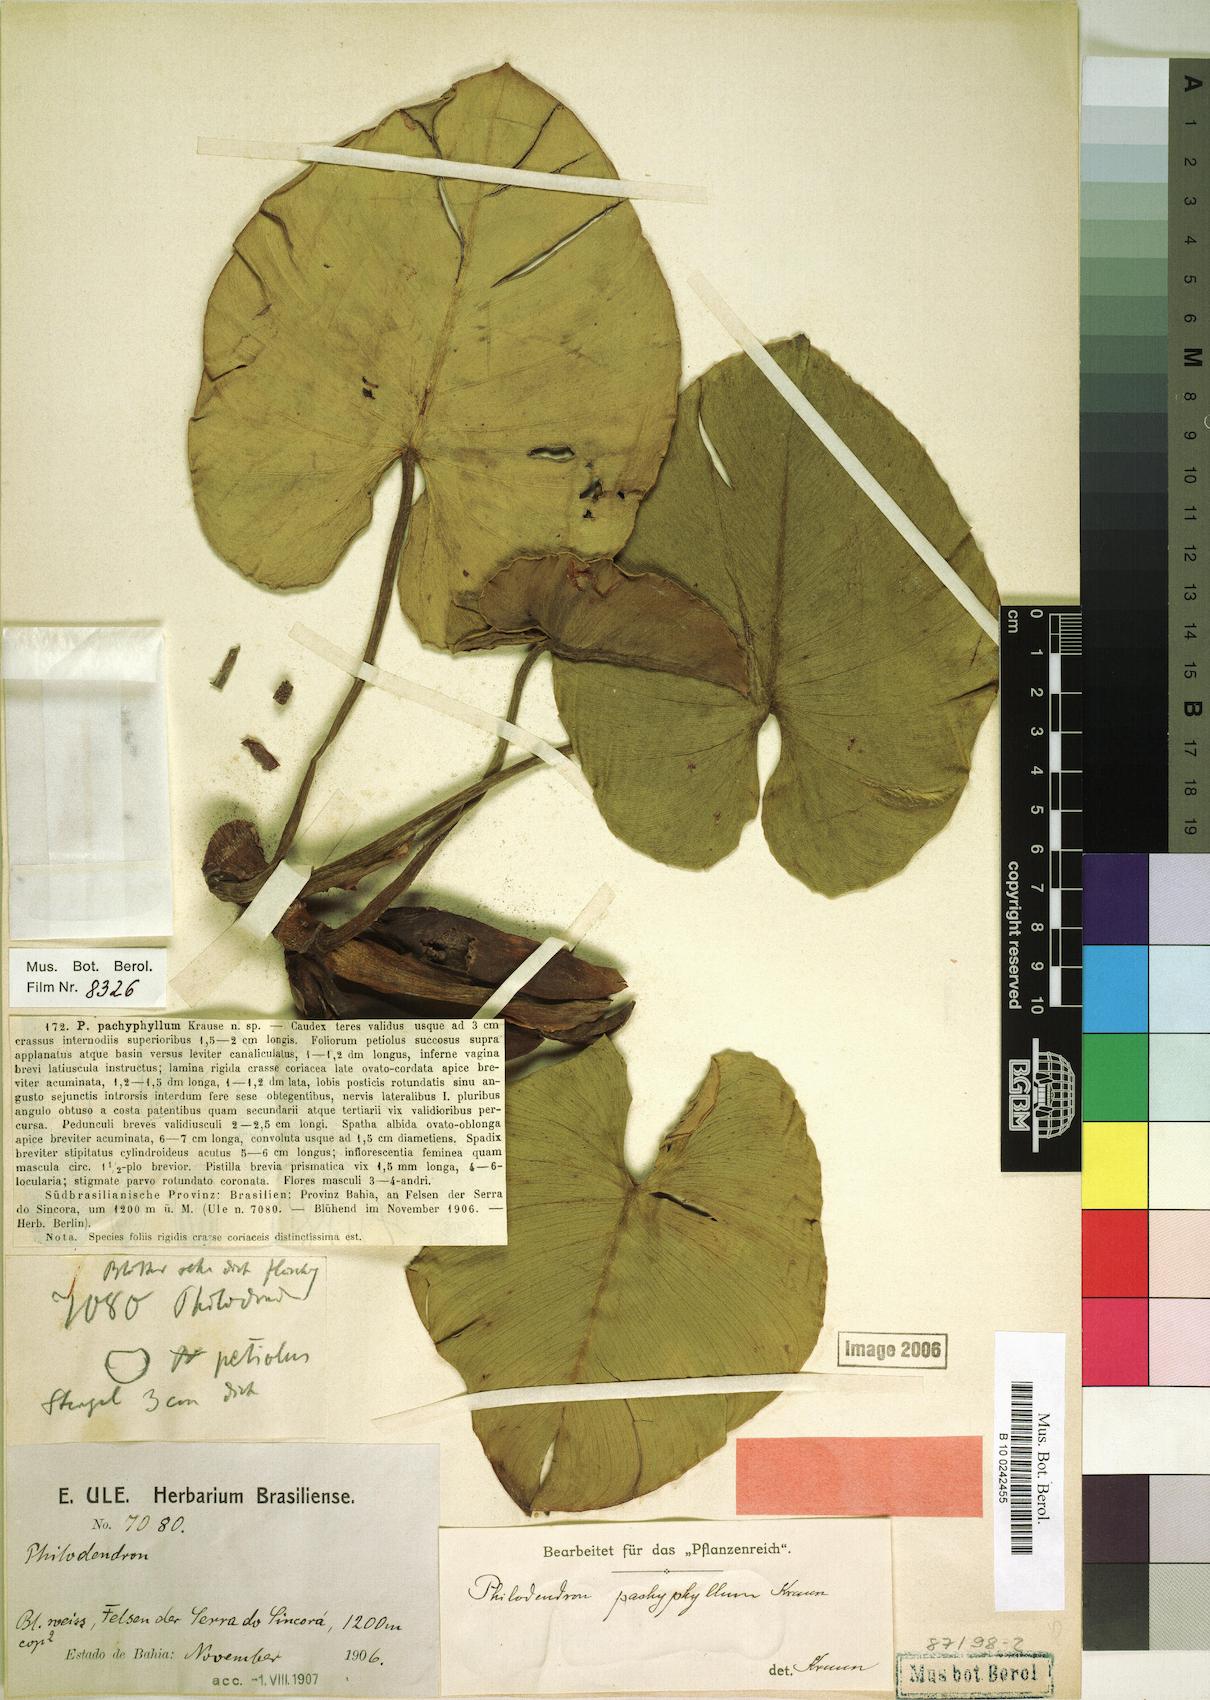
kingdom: Plantae
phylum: Tracheophyta
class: Liliopsida
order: Alismatales
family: Araceae
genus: Philodendron
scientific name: Philodendron pachyphyllum
